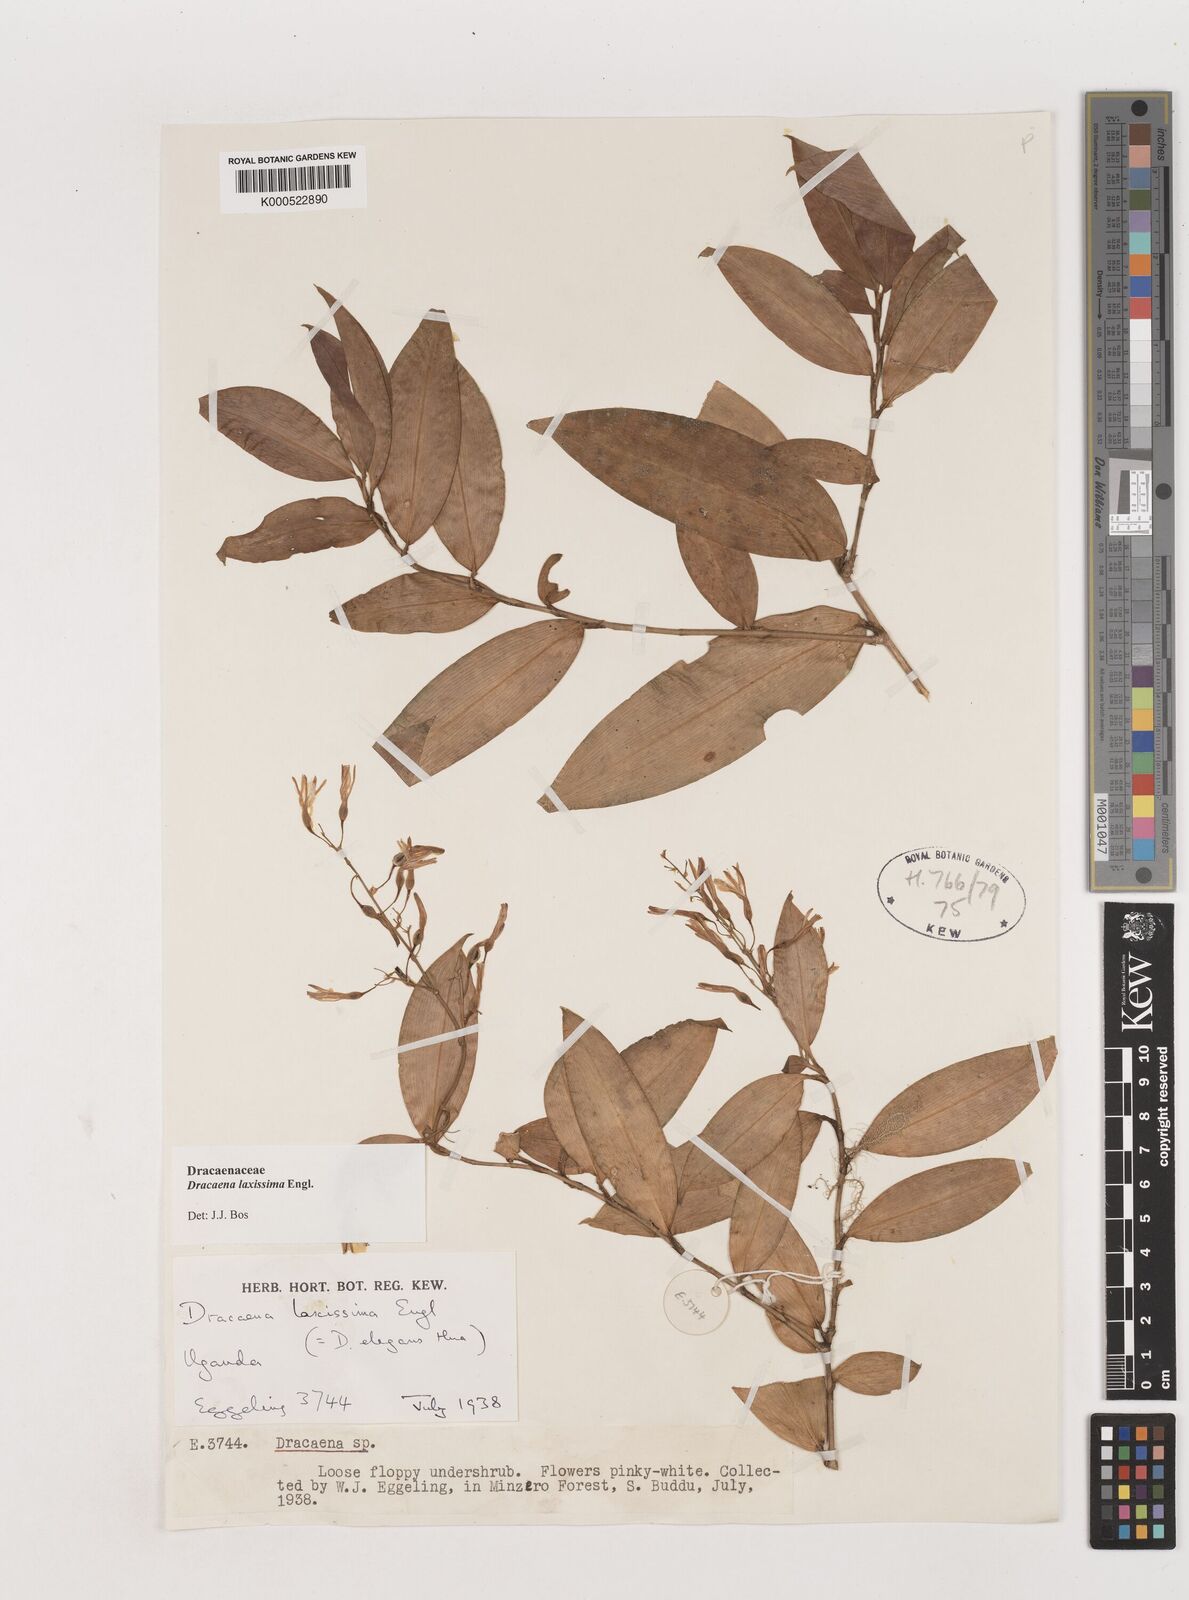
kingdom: Plantae
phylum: Tracheophyta
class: Liliopsida
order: Asparagales
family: Asparagaceae
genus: Dracaena
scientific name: Dracaena laxissima
